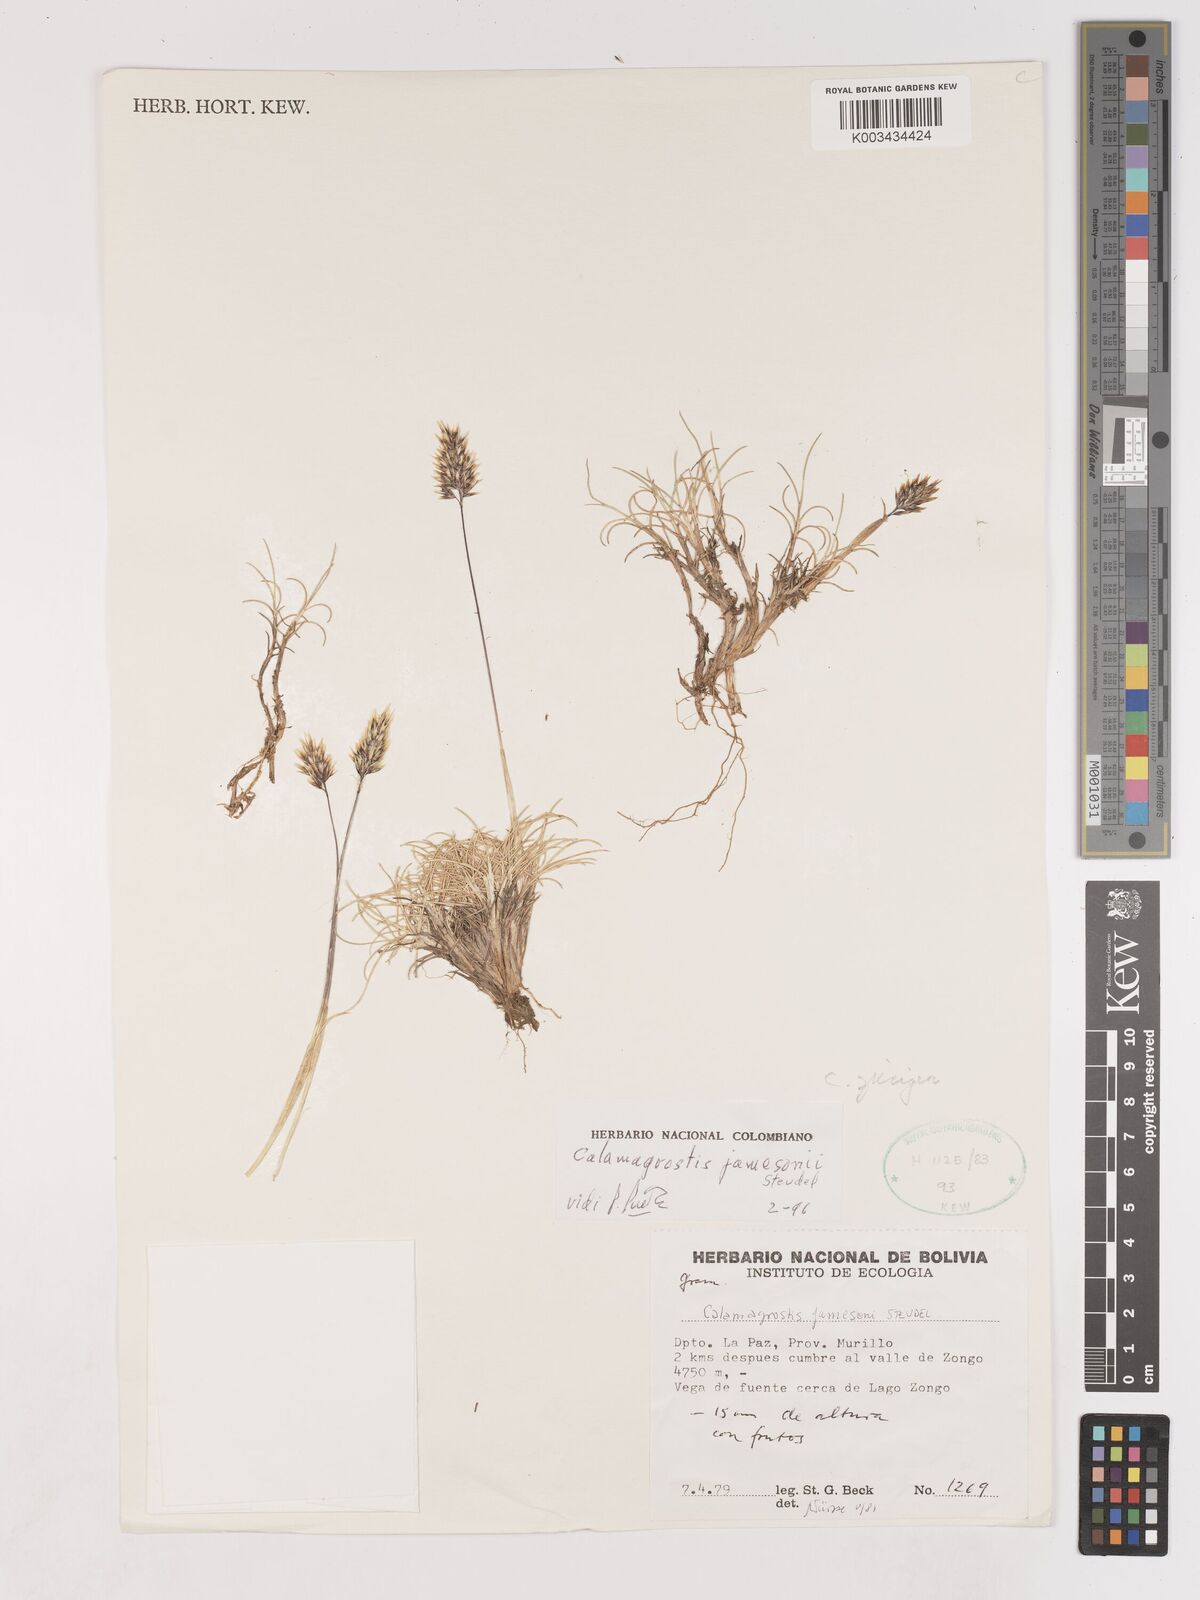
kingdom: Plantae
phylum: Tracheophyta
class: Liliopsida
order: Poales
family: Poaceae
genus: Cinnagrostis
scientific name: Cinnagrostis spicigera
